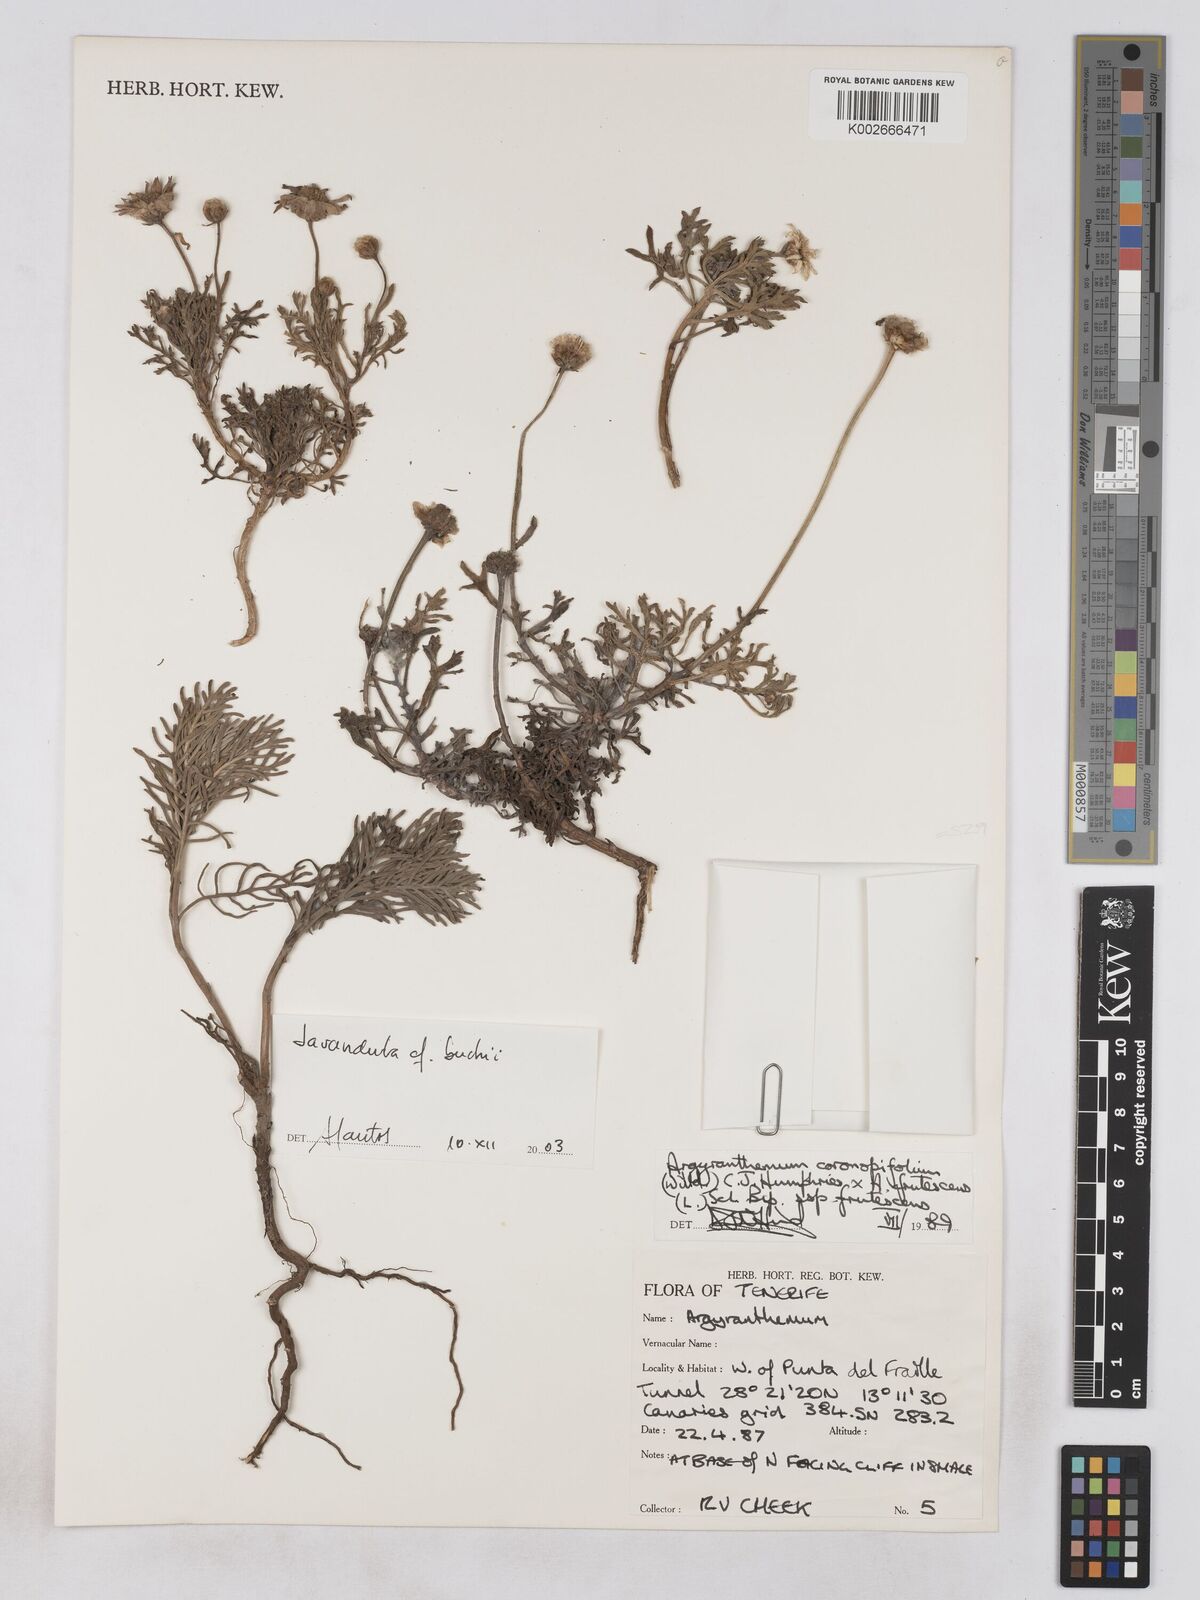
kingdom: Plantae
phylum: Tracheophyta
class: Magnoliopsida
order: Asterales
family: Asteraceae
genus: Argyranthemum
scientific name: Argyranthemum coronopifolium
